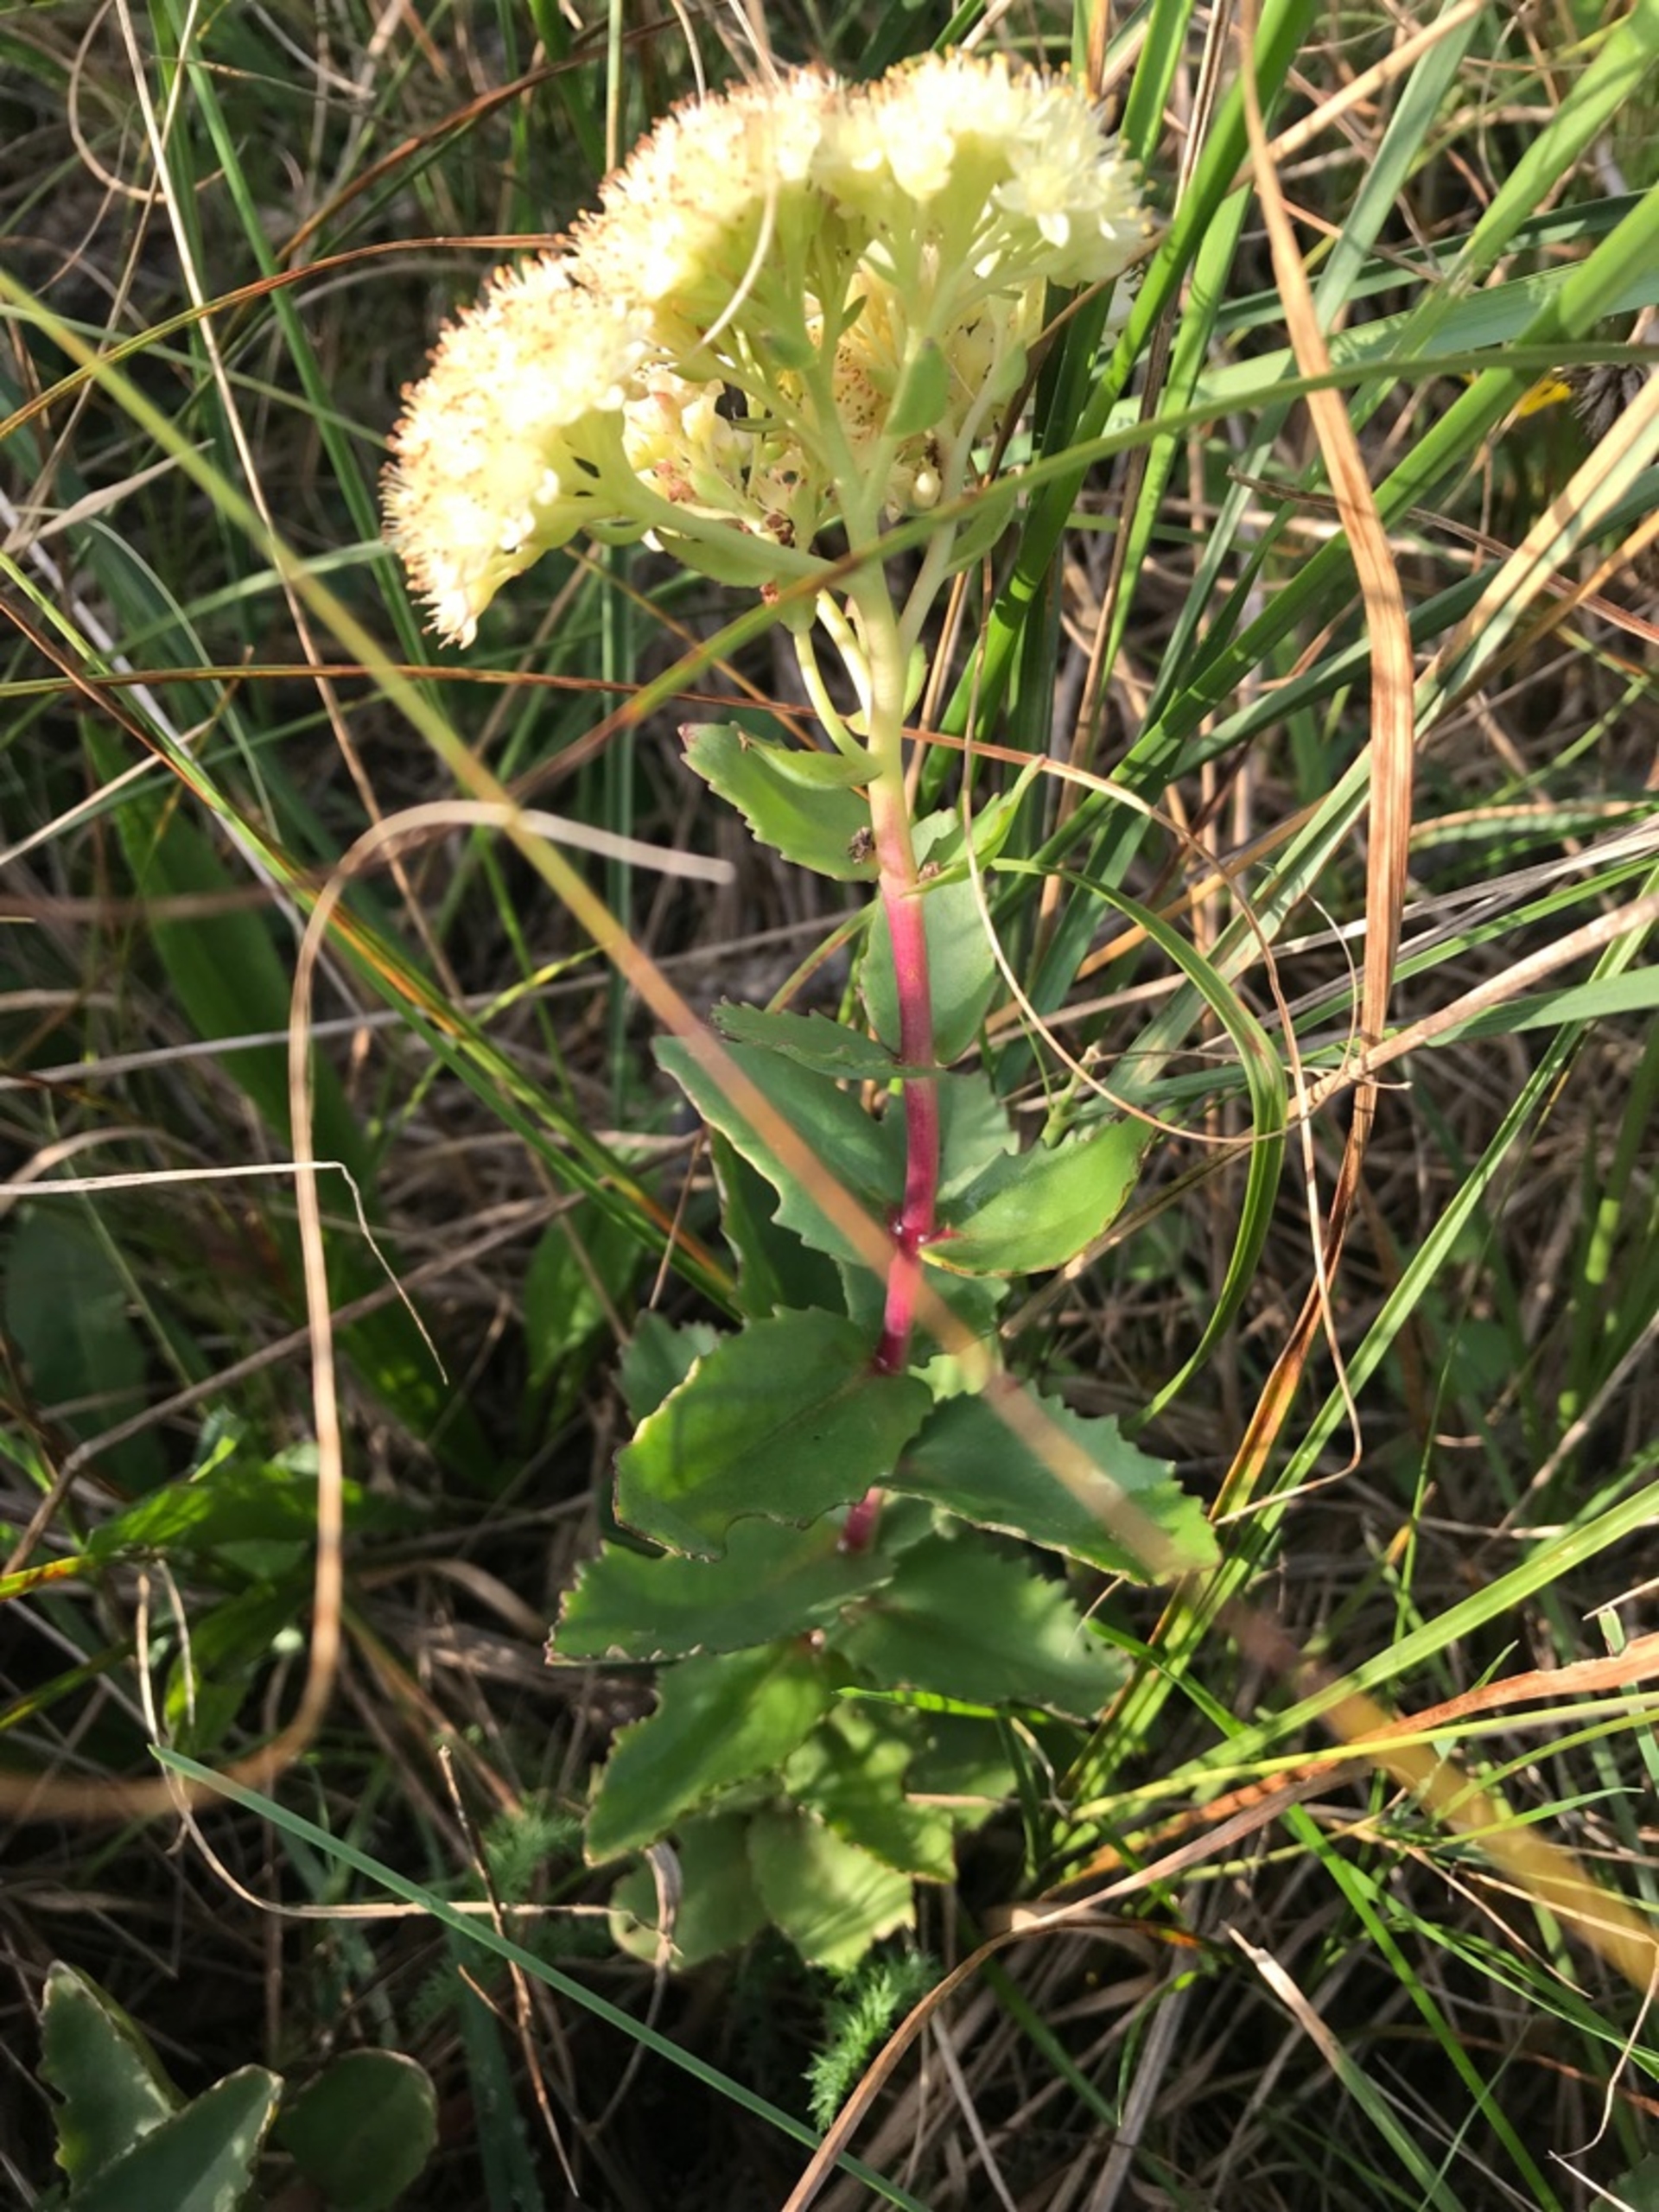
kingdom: Plantae
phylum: Tracheophyta
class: Magnoliopsida
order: Saxifragales
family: Crassulaceae
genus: Hylotelephium
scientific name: Hylotelephium telephium
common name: Sankthansurt
